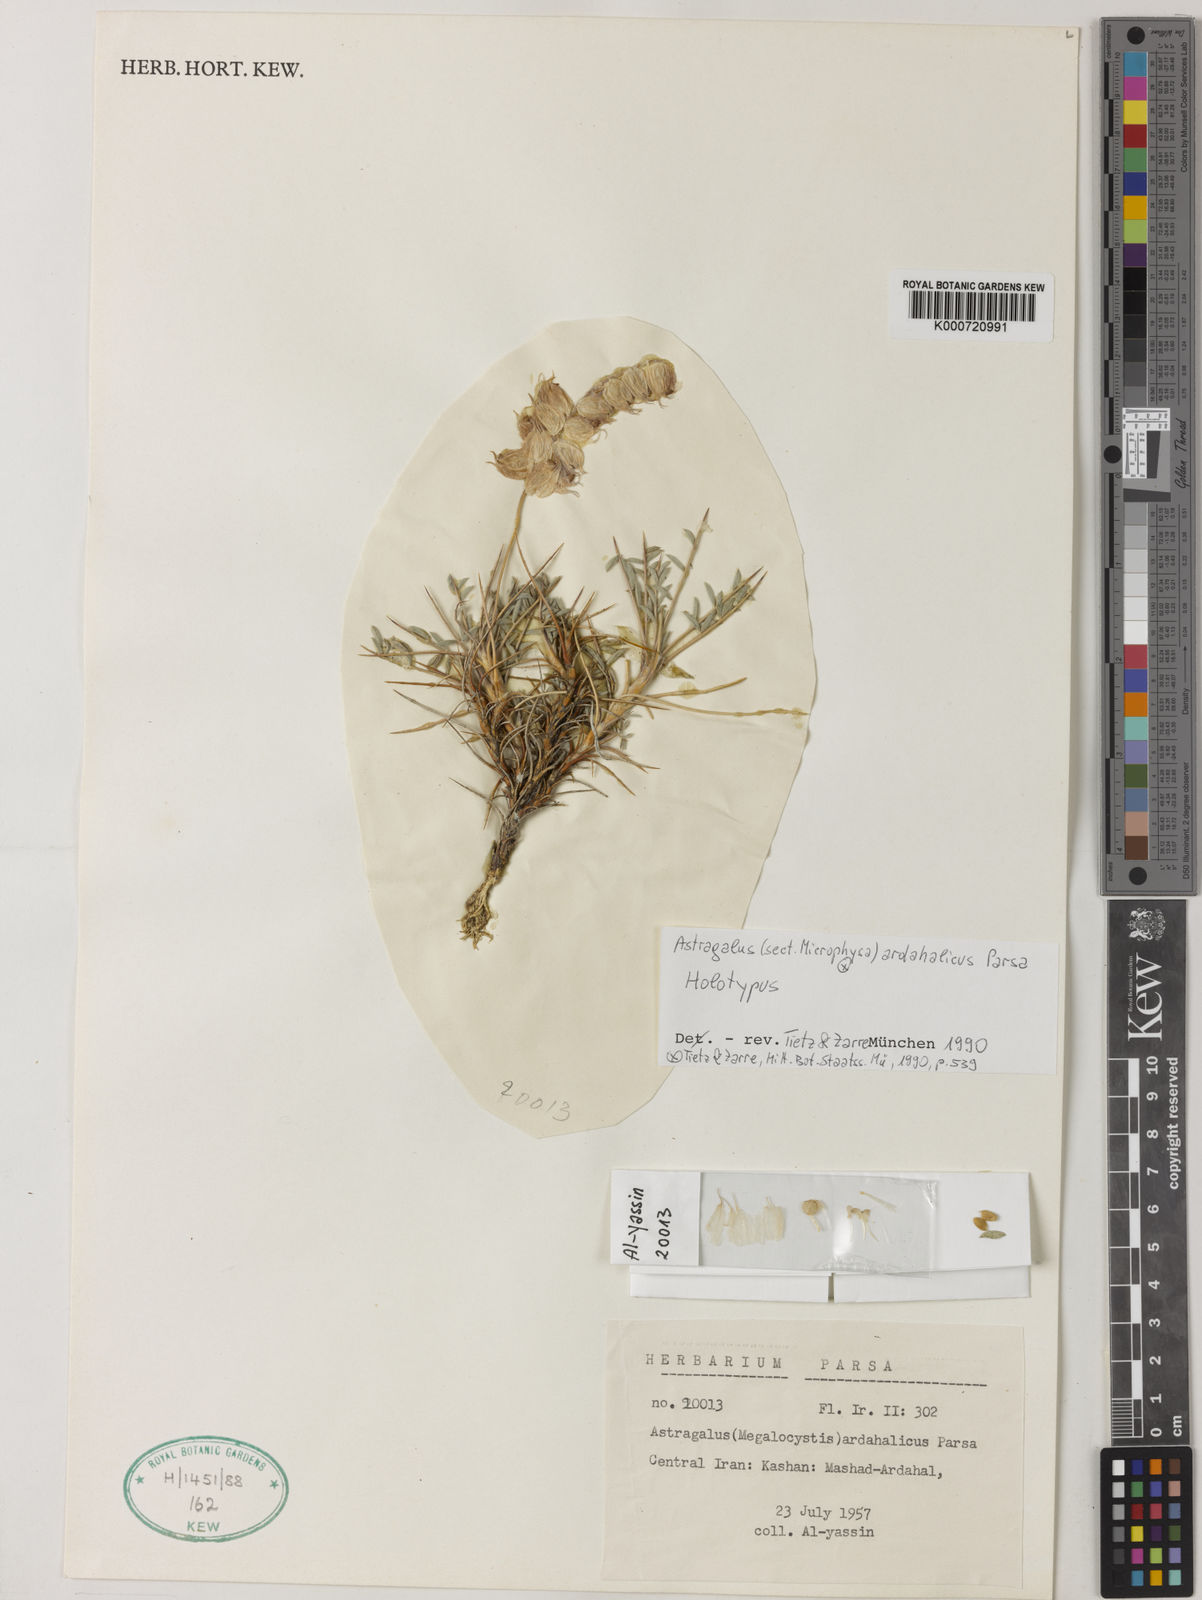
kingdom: Plantae
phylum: Tracheophyta
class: Magnoliopsida
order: Fabales
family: Fabaceae
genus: Astragalus
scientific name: Astragalus ardahalicus
